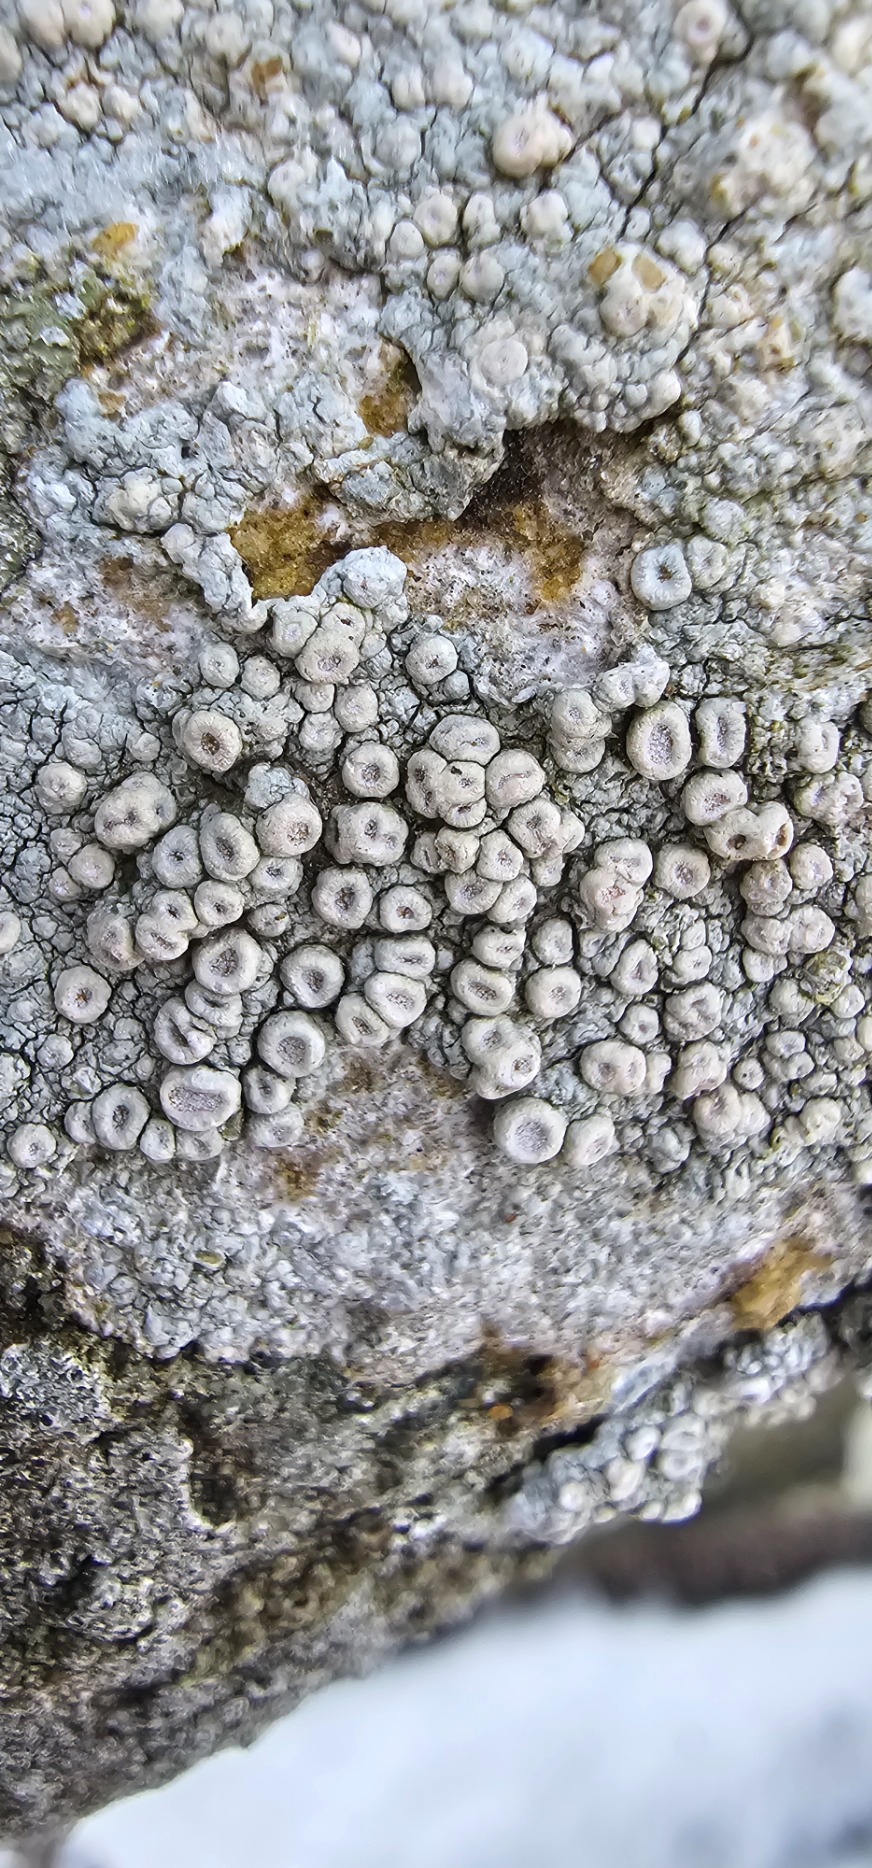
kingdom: Fungi
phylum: Ascomycota
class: Lecanoromycetes
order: Pertusariales
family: Ochrolechiaceae
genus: Ochrolechia
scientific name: Ochrolechia parella
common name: Almindelig blegskivelav
